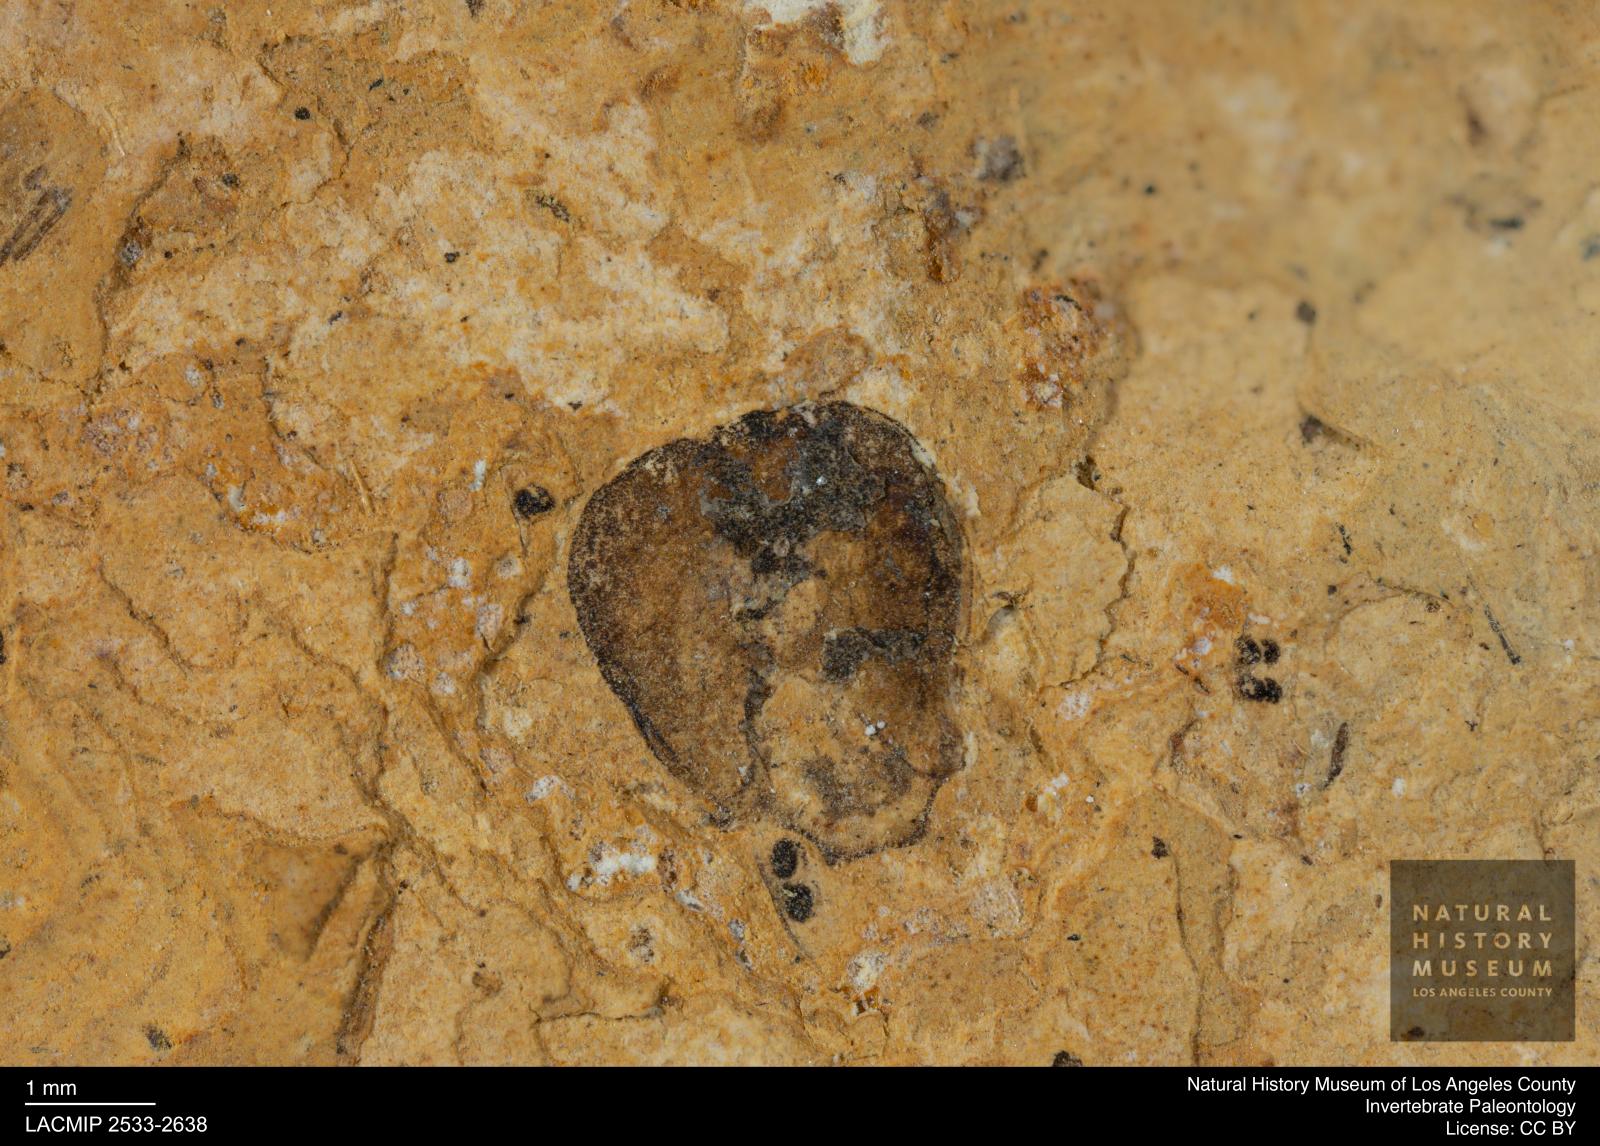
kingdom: Animalia
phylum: Arthropoda
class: Insecta
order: Hymenoptera
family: Vespidae
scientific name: Vespidae
